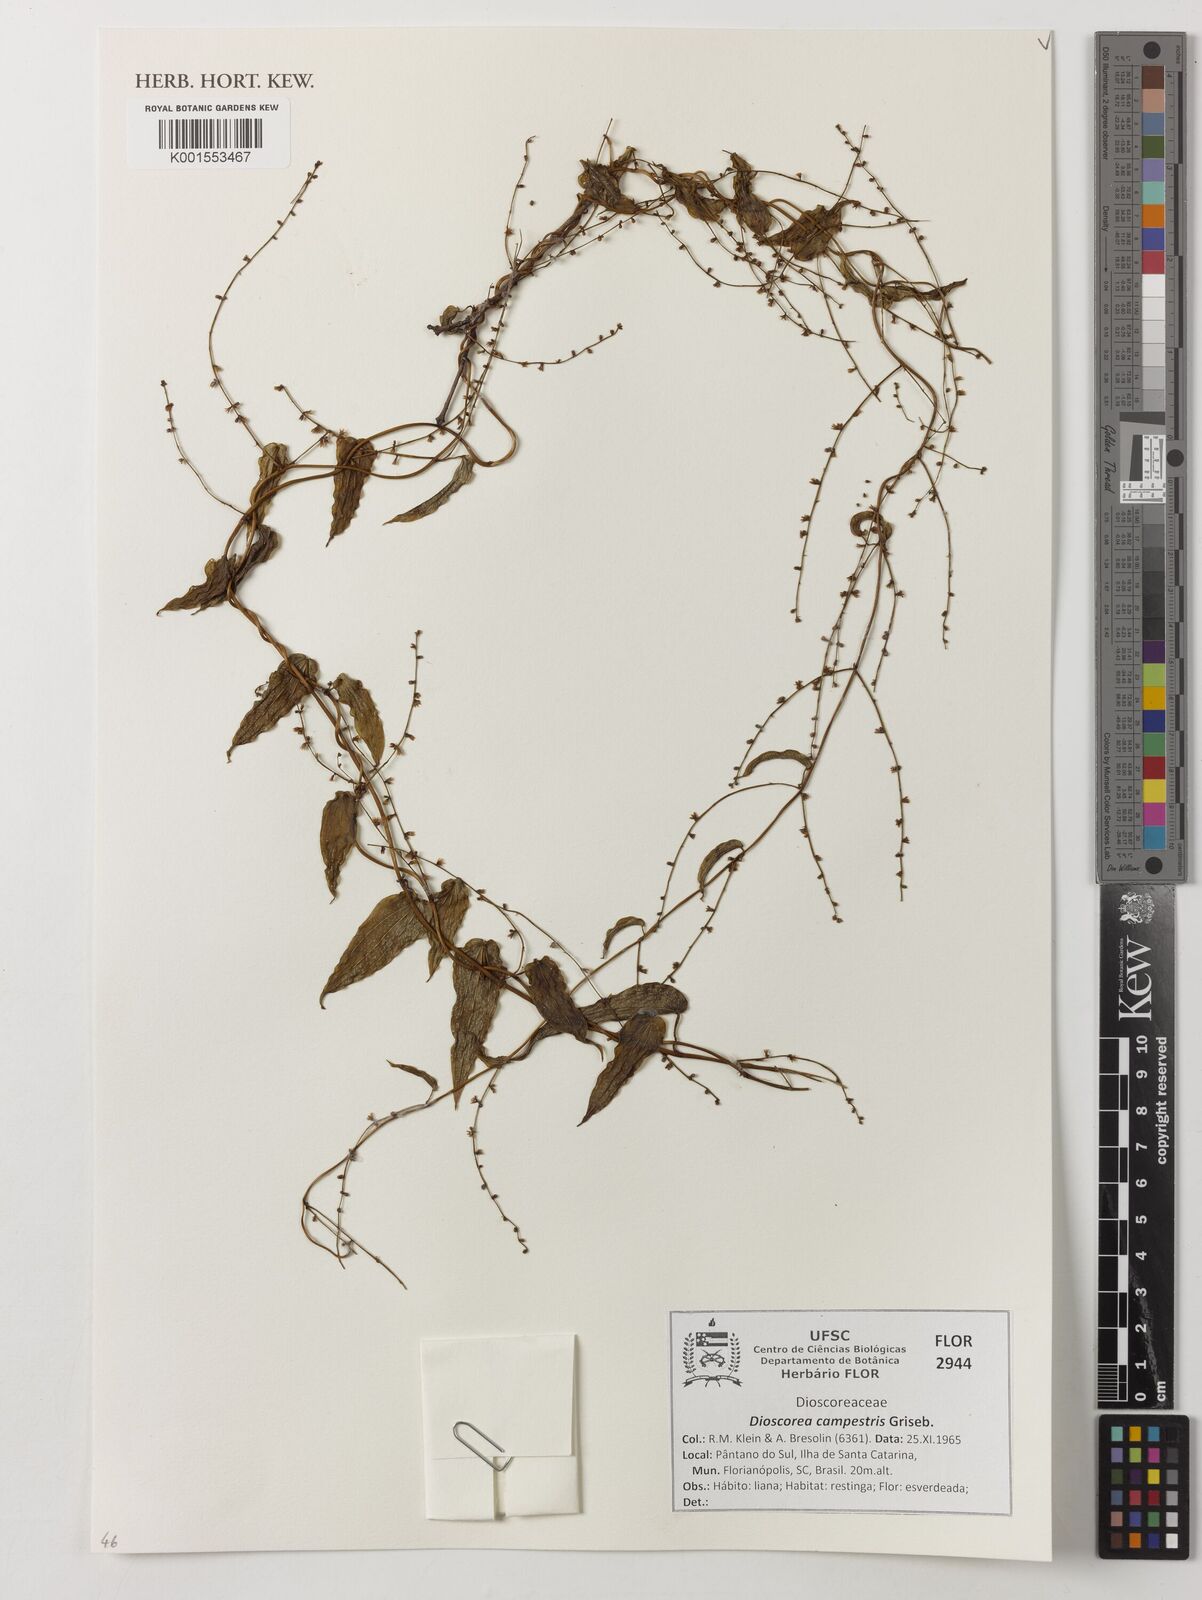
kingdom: Plantae
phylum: Tracheophyta
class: Liliopsida
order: Dioscoreales
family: Dioscoreaceae
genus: Dioscorea
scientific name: Dioscorea campestris
